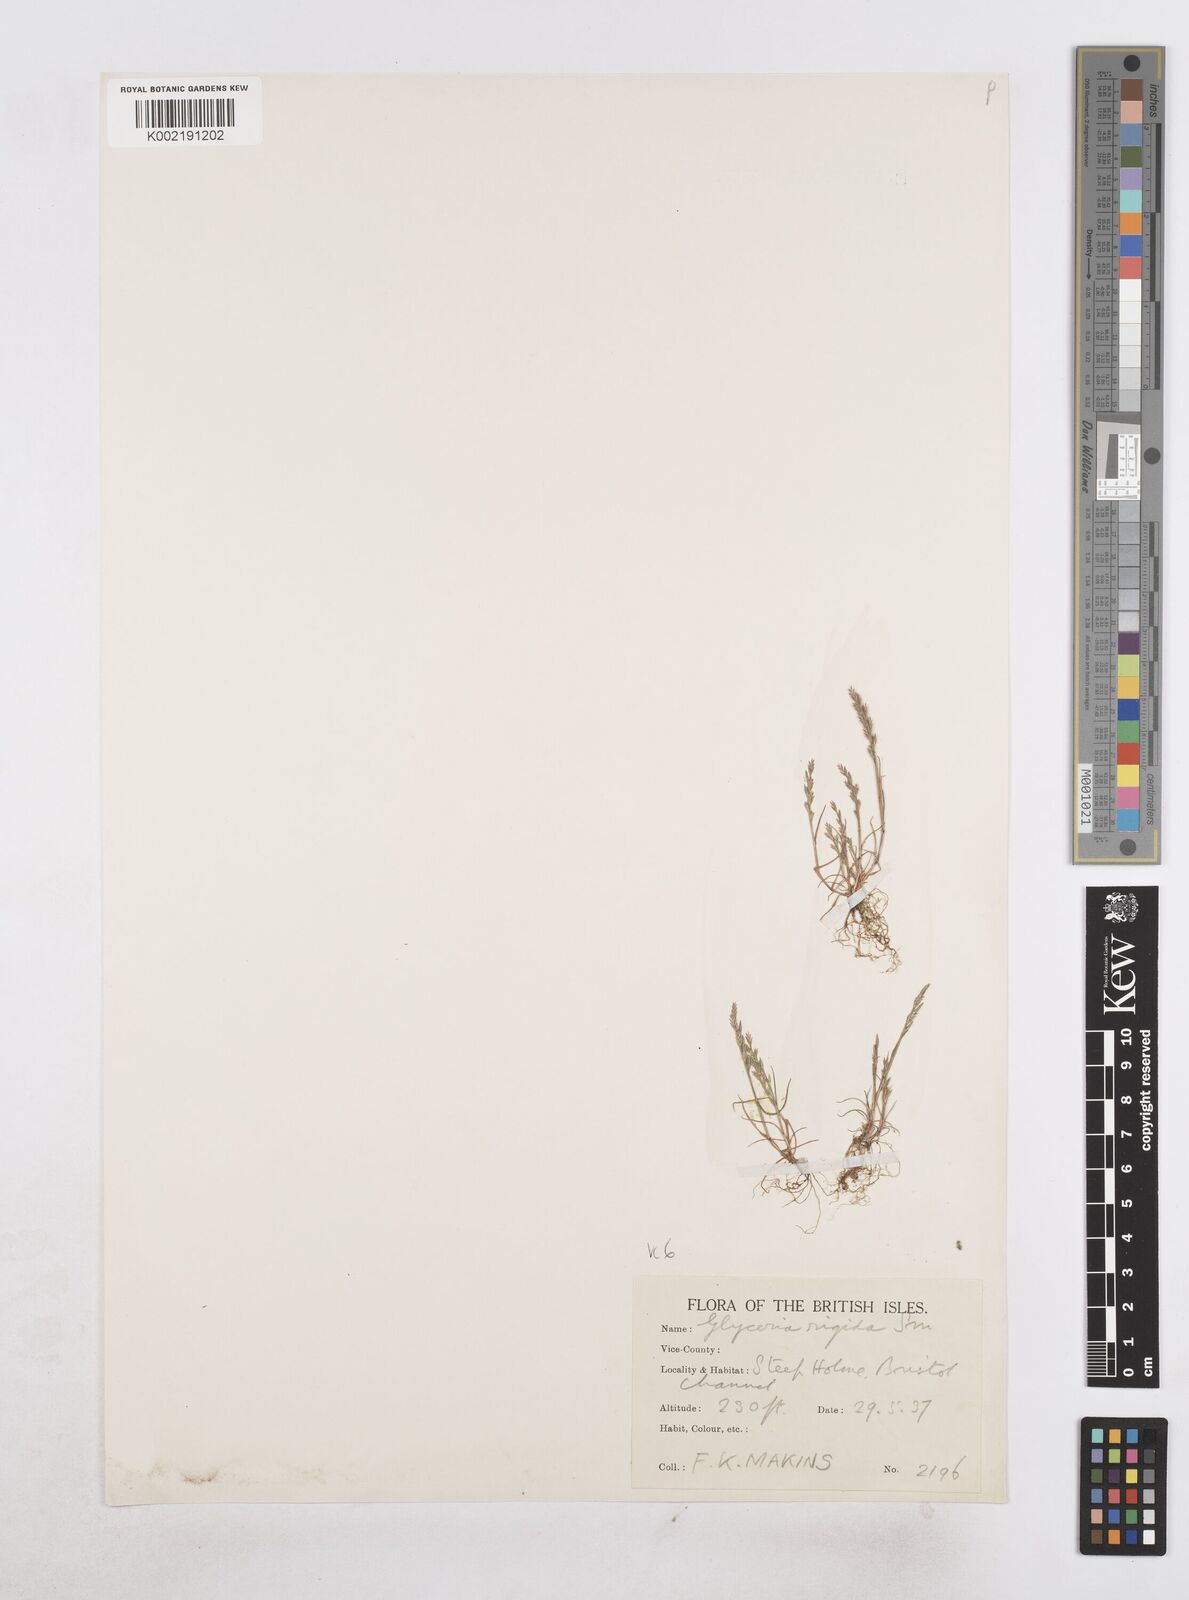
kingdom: Plantae
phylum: Tracheophyta
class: Liliopsida
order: Poales
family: Poaceae
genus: Catapodium
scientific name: Catapodium rigidum
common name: Fern-grass
